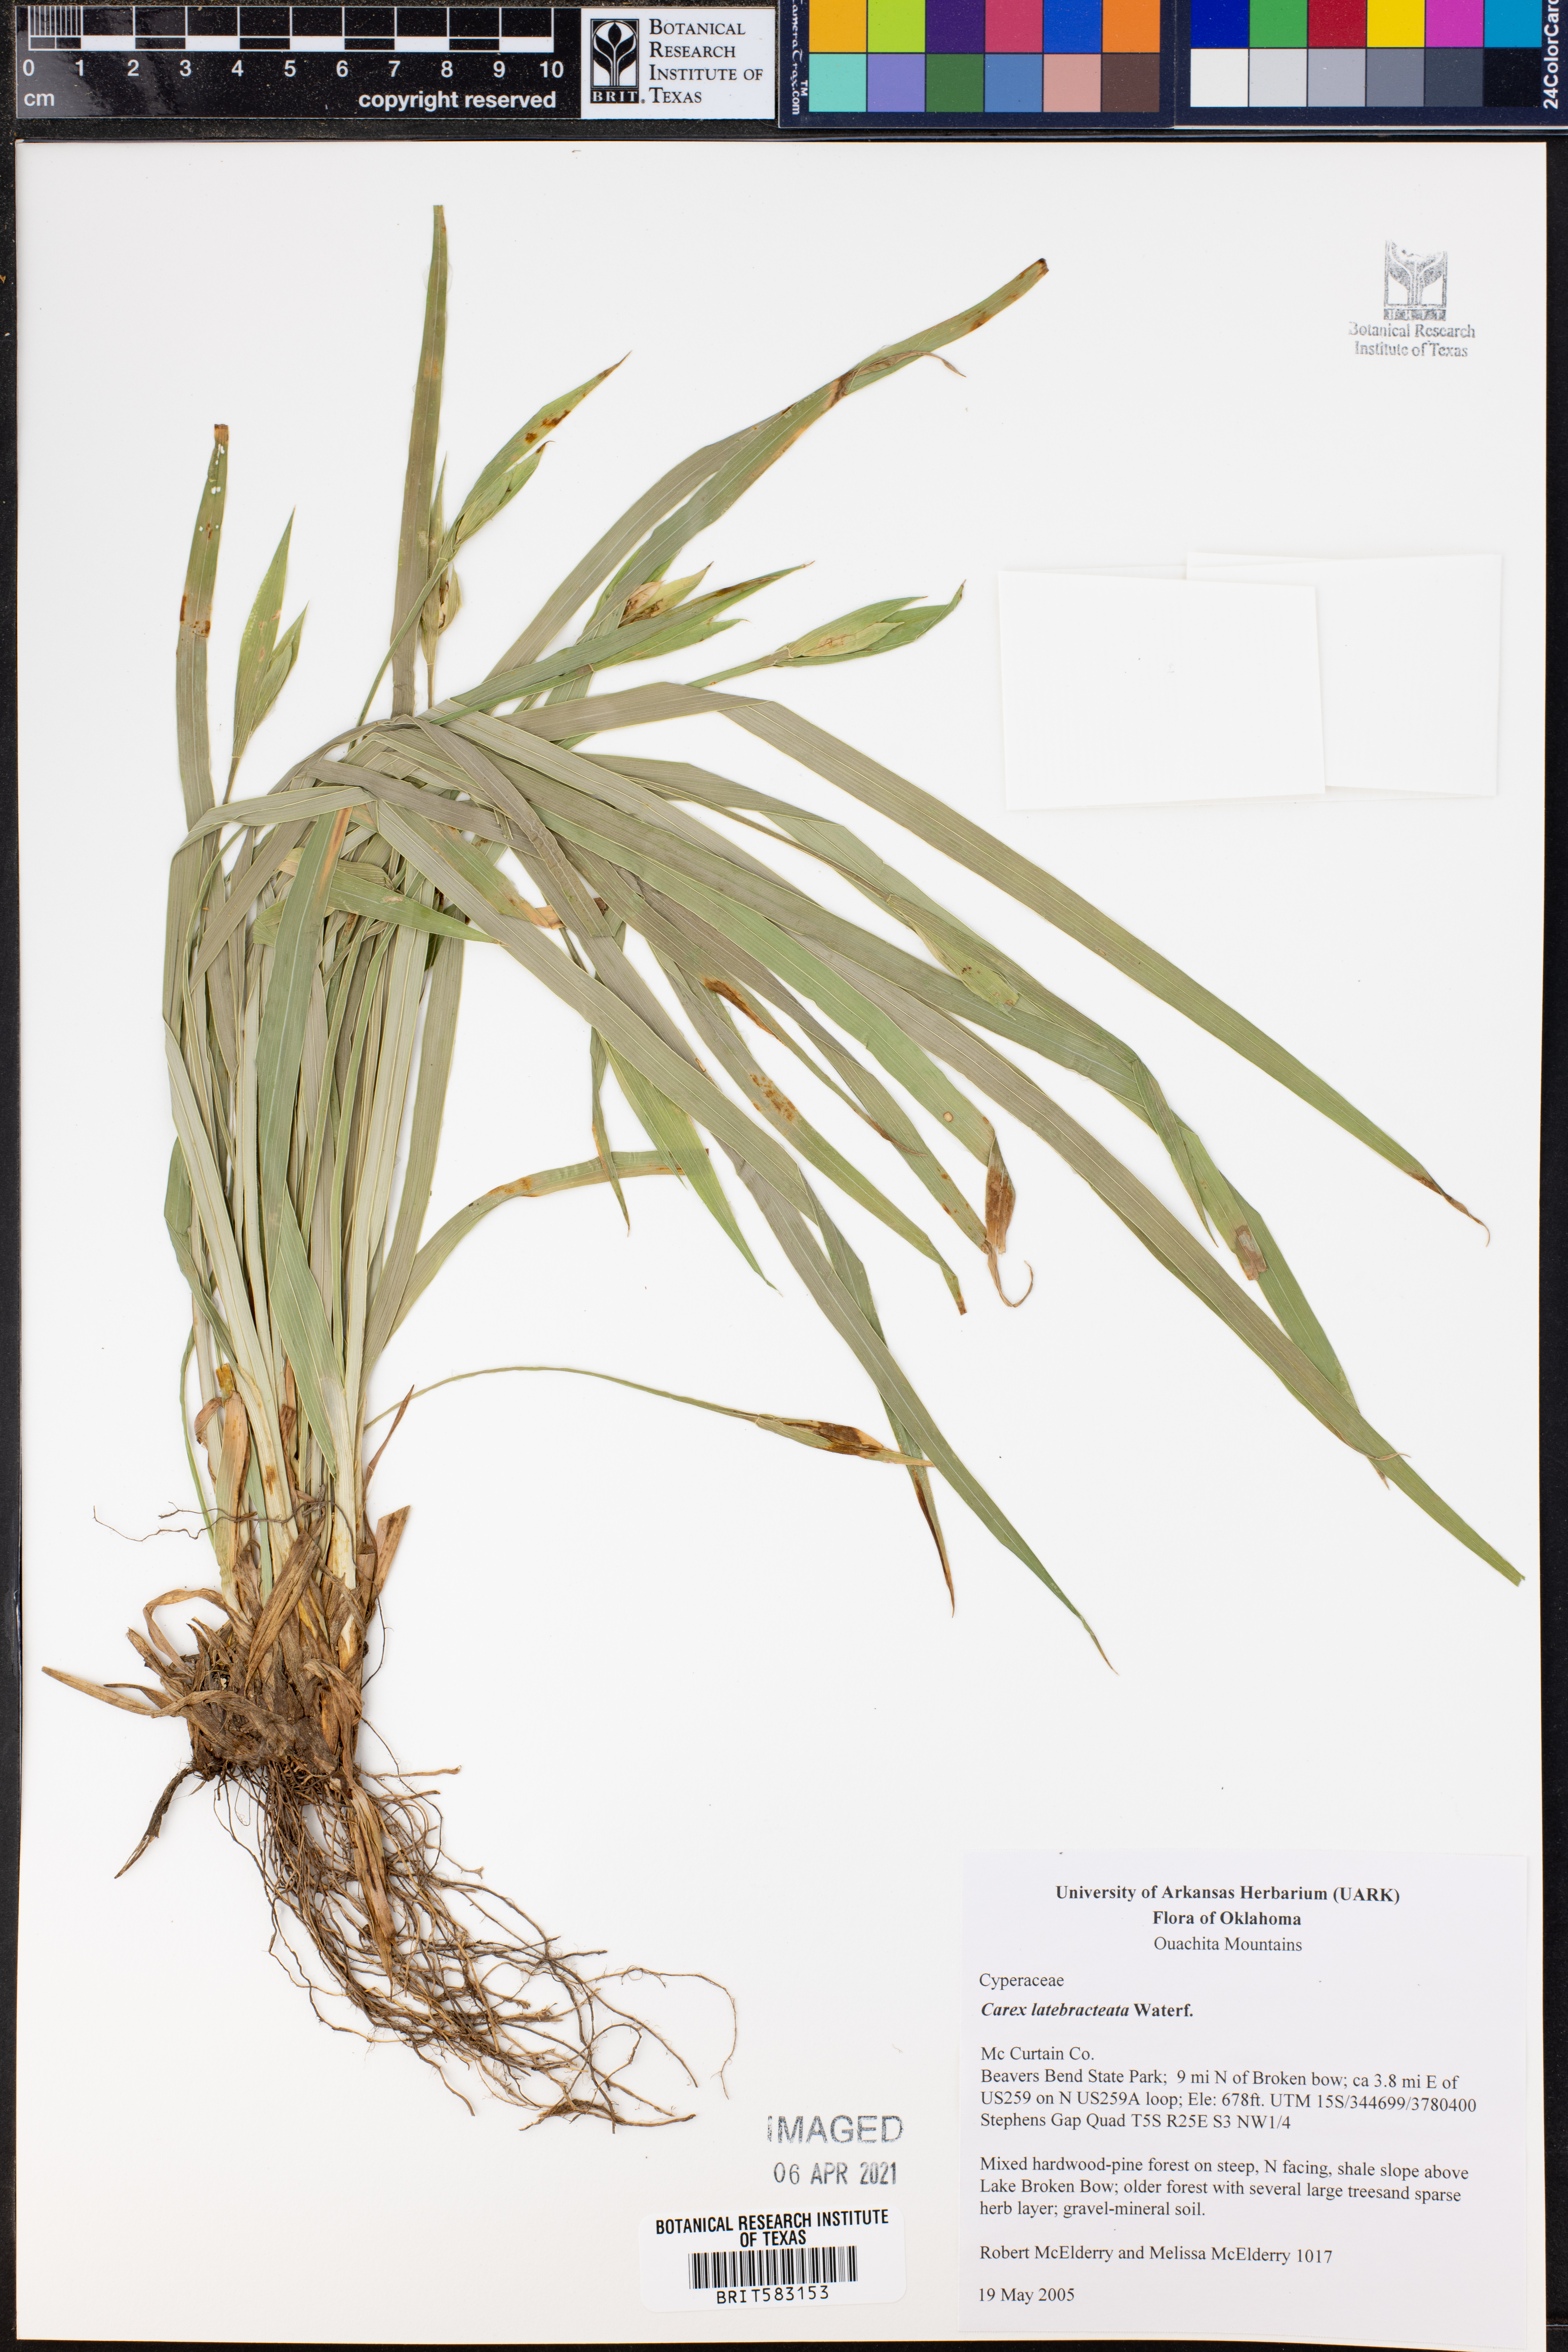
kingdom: Plantae
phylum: Tracheophyta
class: Liliopsida
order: Poales
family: Cyperaceae
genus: Carex
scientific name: Carex latebracteata
